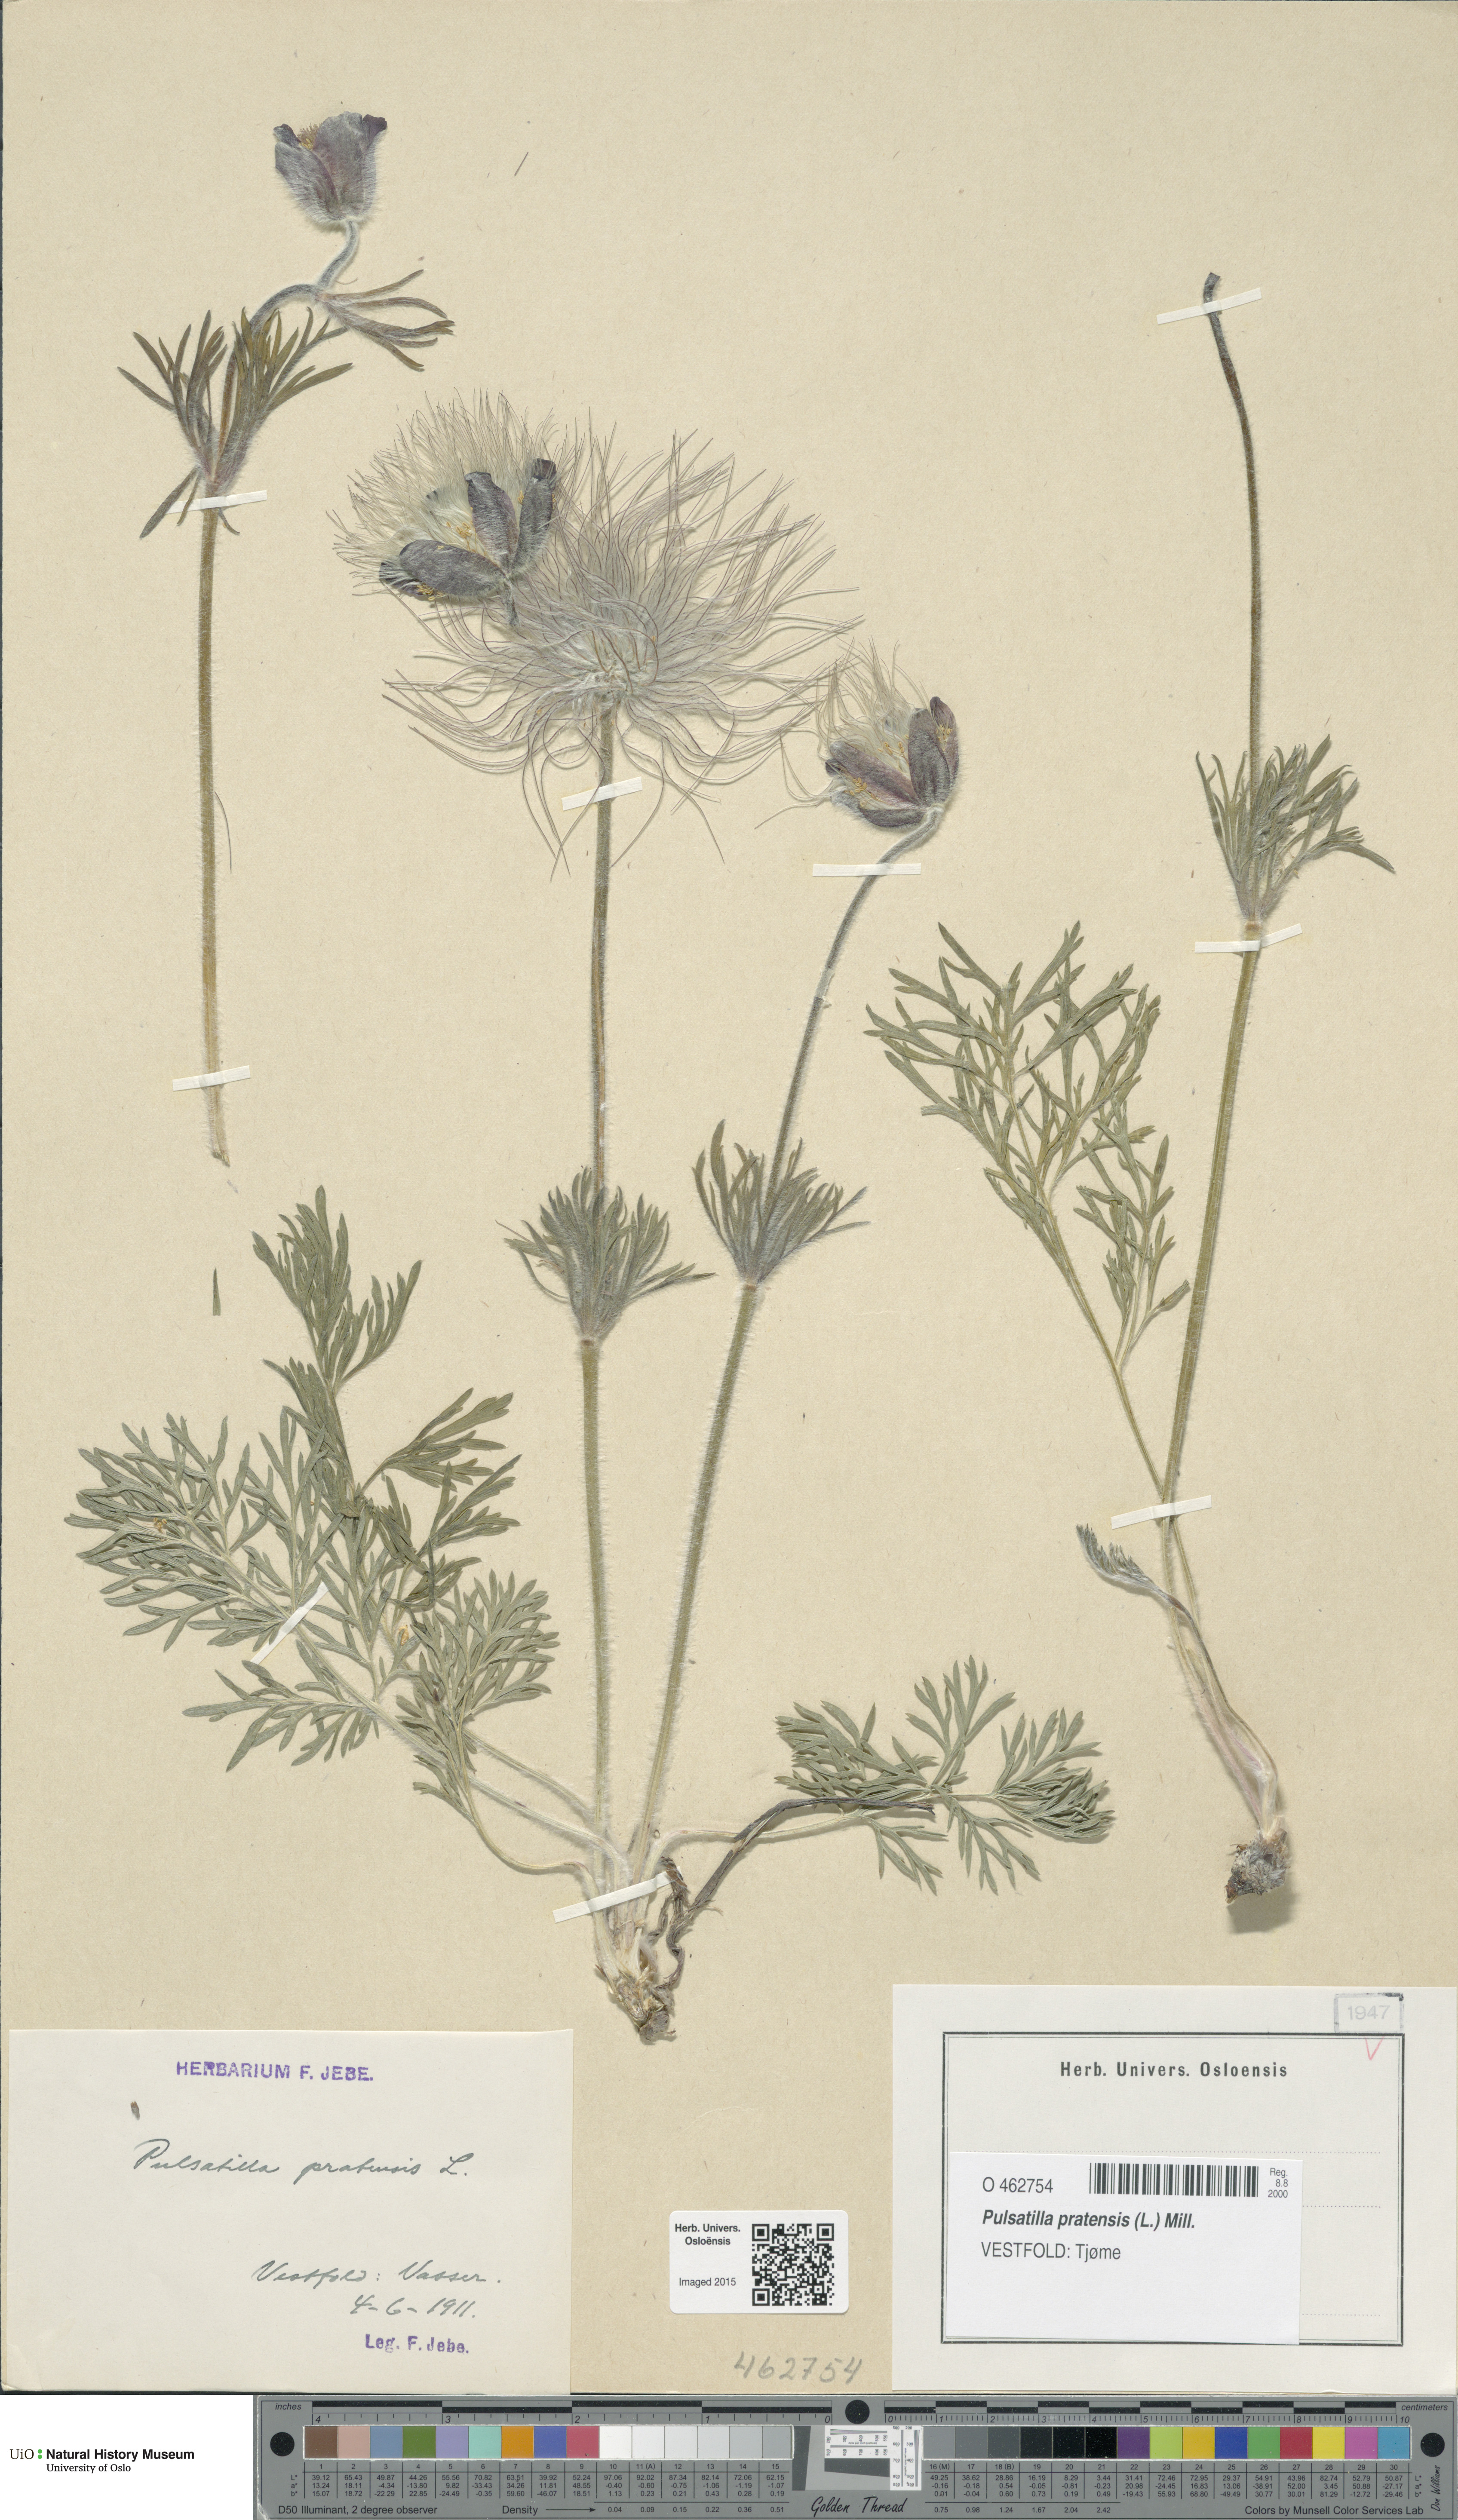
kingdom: Plantae
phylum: Tracheophyta
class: Magnoliopsida
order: Ranunculales
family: Ranunculaceae
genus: Pulsatilla
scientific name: Pulsatilla pratensis
